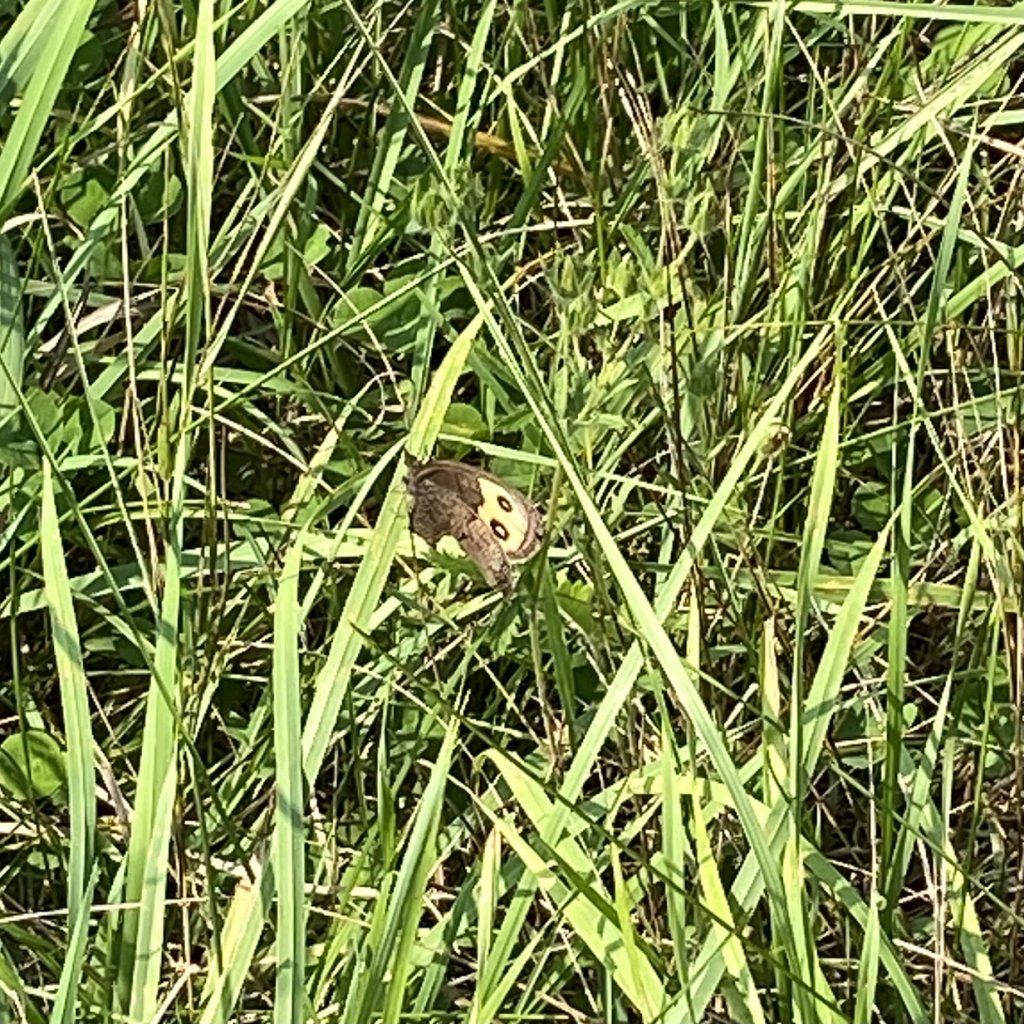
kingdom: Animalia
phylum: Arthropoda
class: Insecta
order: Lepidoptera
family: Nymphalidae
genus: Cercyonis
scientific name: Cercyonis pegala
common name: Common Wood-Nymph
